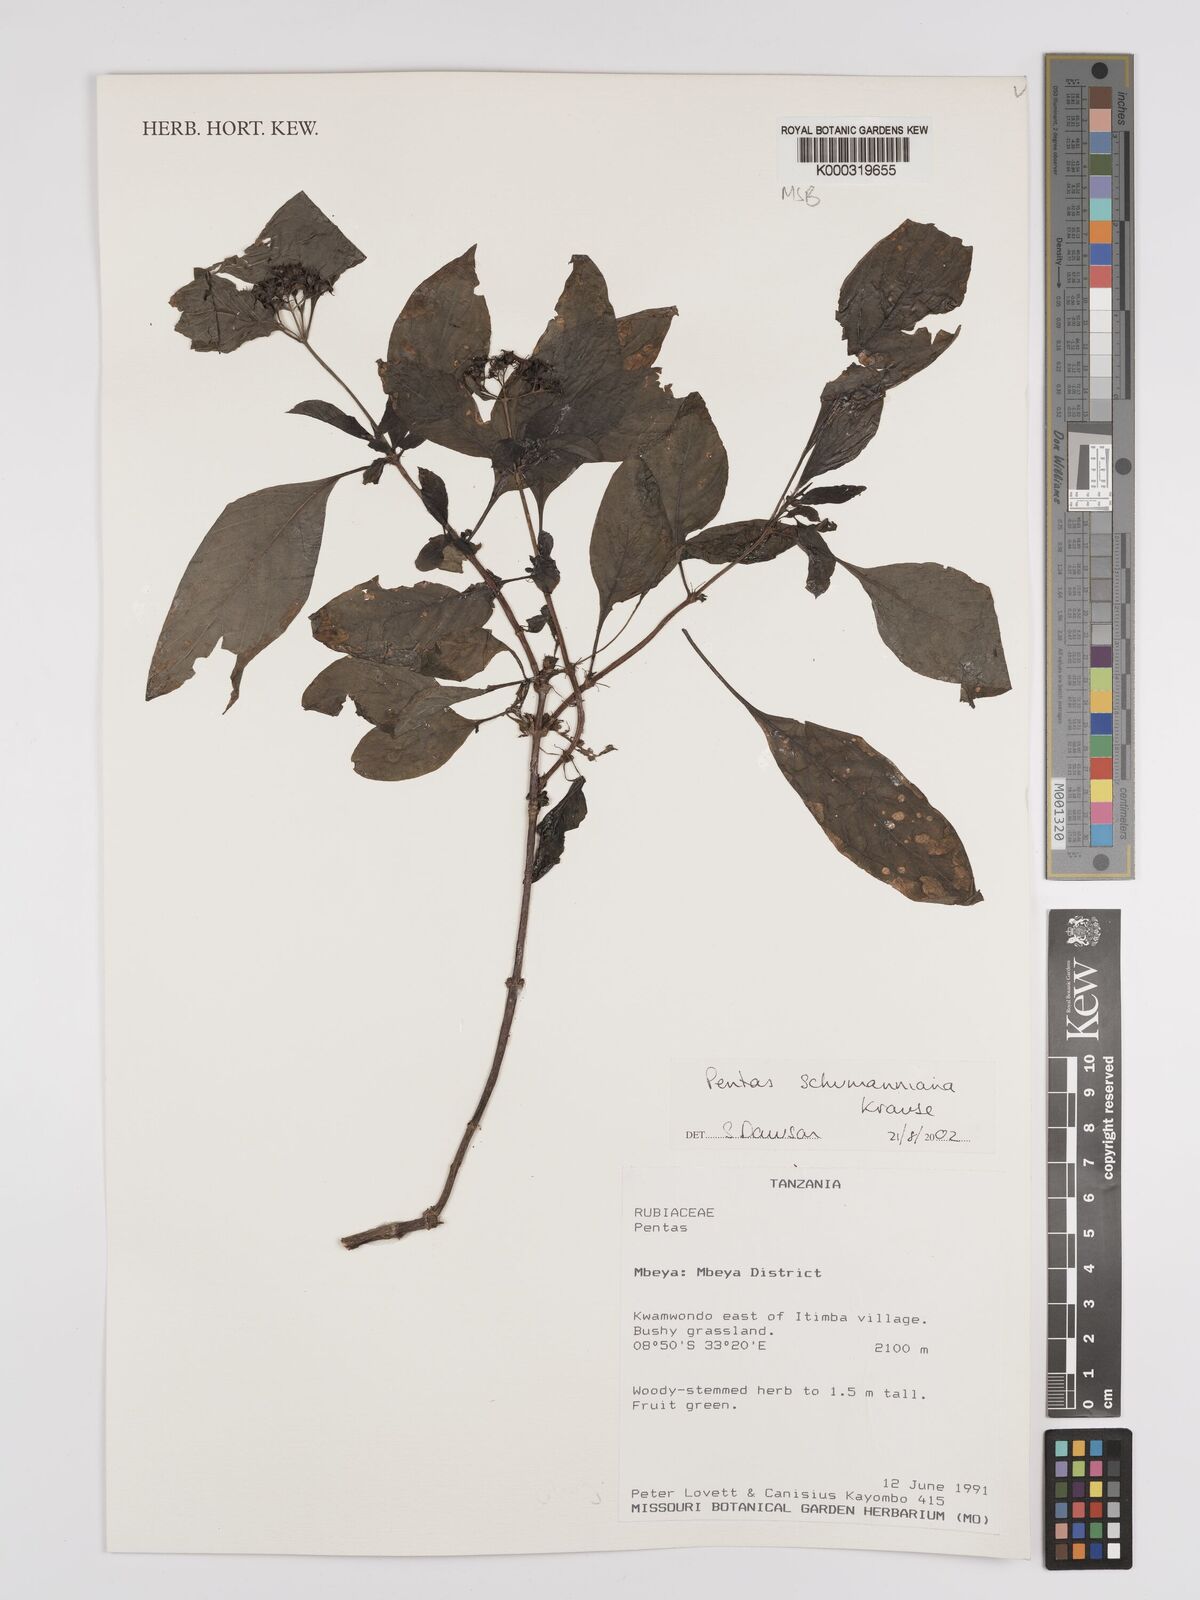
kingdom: Plantae
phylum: Tracheophyta
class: Magnoliopsida
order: Gentianales
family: Rubiaceae
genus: Phyllopentas
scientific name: Phyllopentas schumanniana
